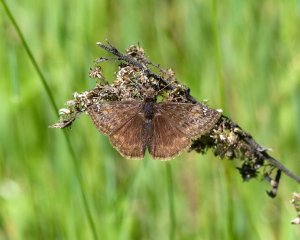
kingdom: Animalia
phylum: Arthropoda
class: Insecta
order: Lepidoptera
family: Hesperiidae
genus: Gesta
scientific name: Gesta
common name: Juvenal's Duskywing
